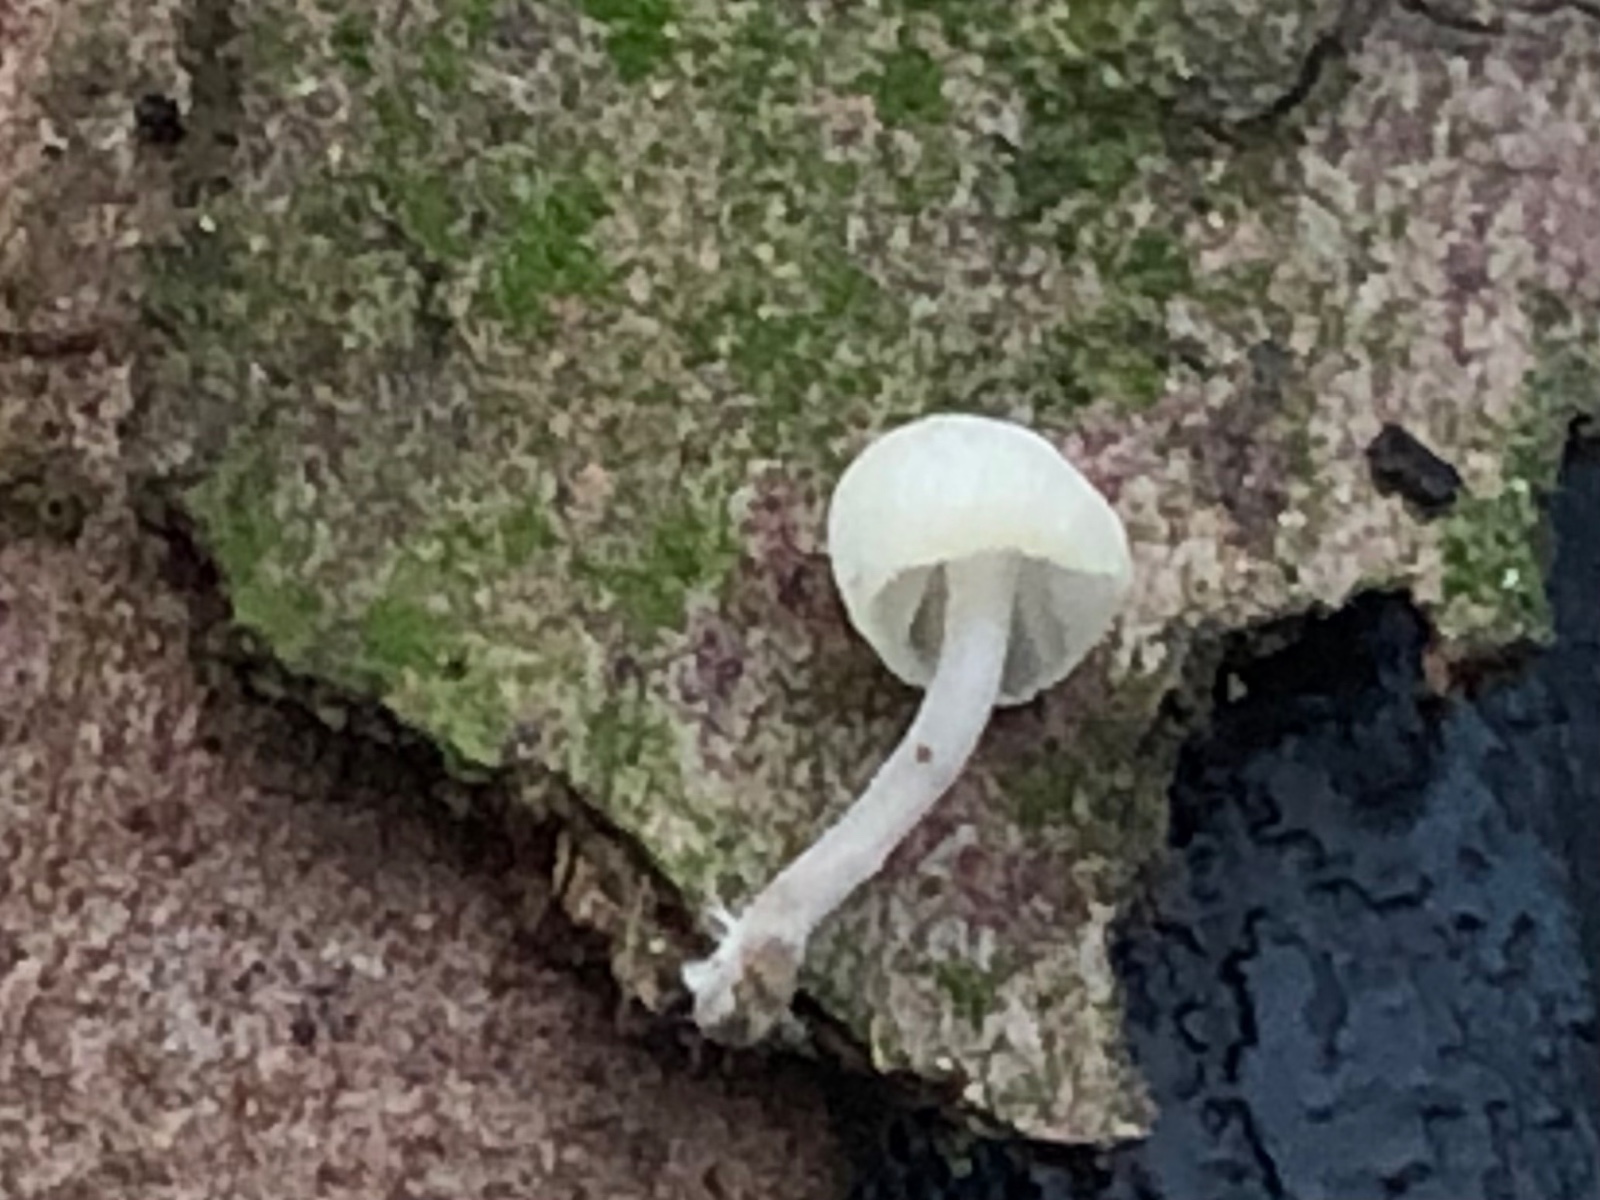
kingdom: Fungi
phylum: Basidiomycota
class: Agaricomycetes
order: Agaricales
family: Mycenaceae
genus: Mycena
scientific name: Mycena xantholeuca
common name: cremehvid huesvamp
